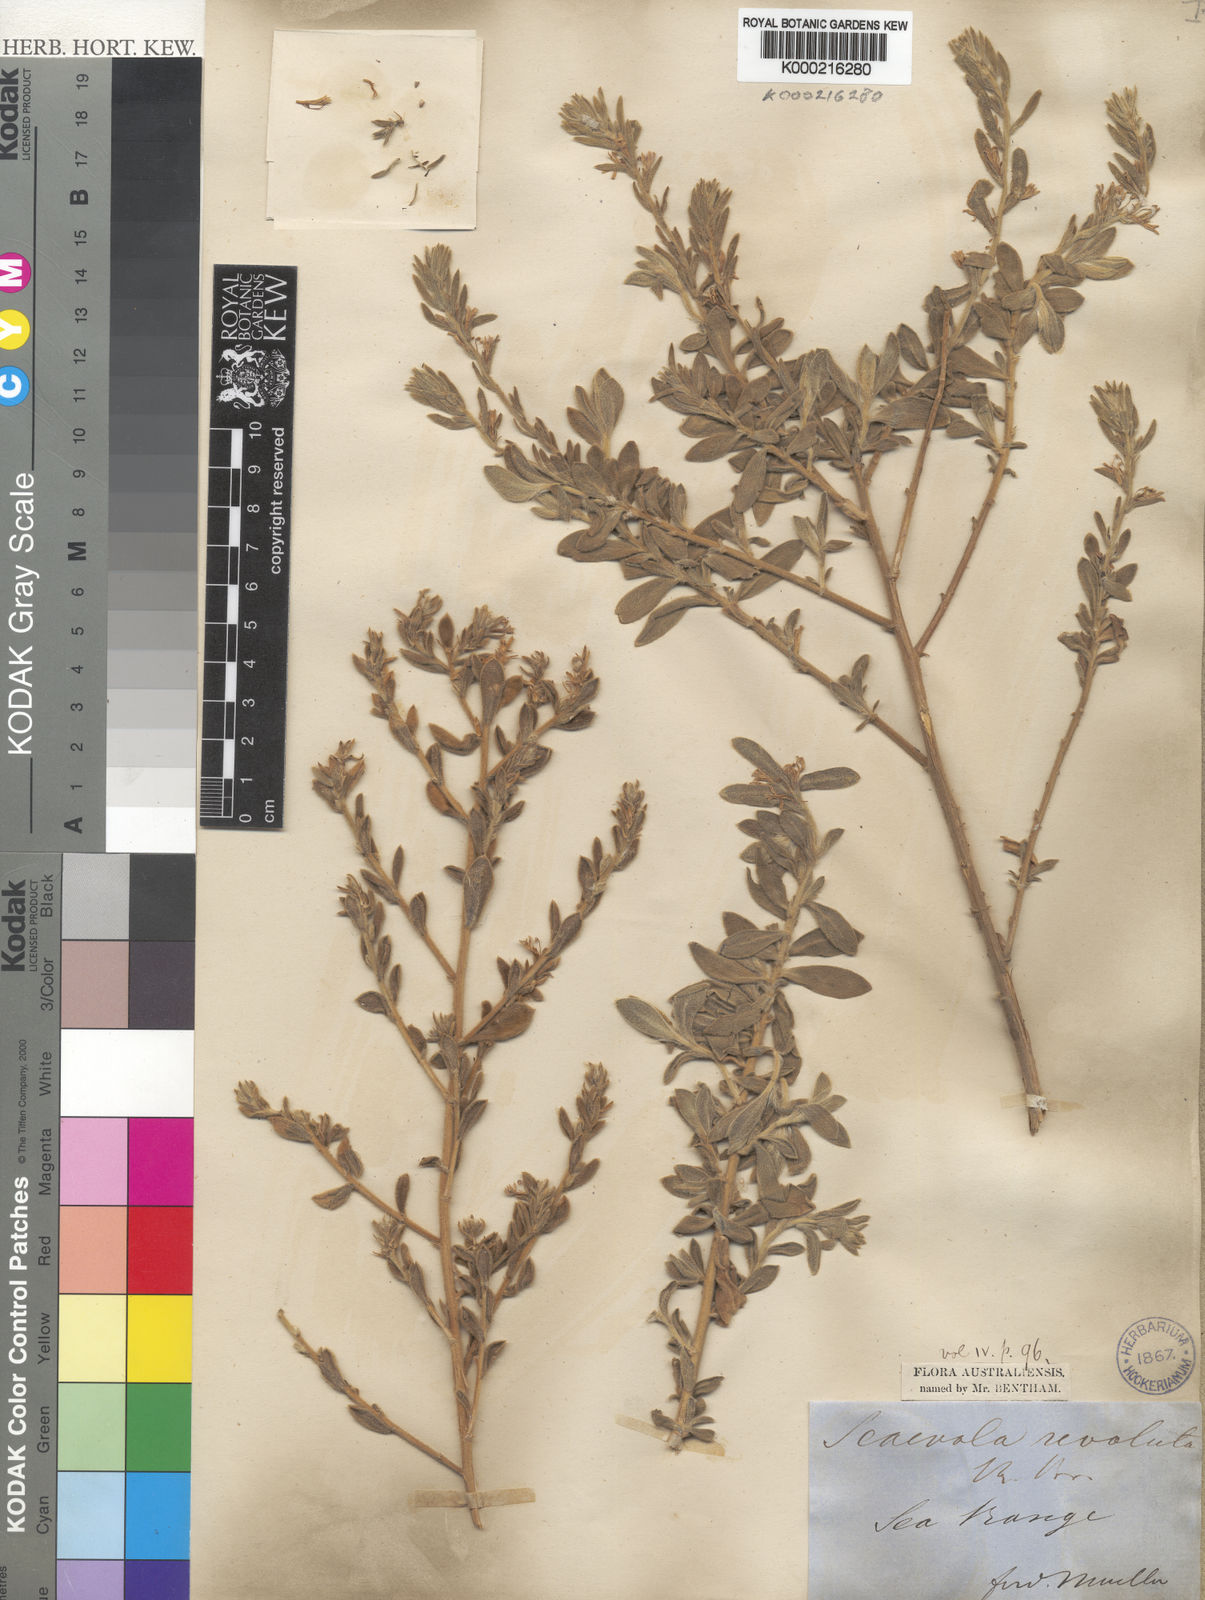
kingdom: Plantae
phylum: Tracheophyta
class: Magnoliopsida
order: Asterales
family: Goodeniaceae
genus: Scaevola
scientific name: Scaevola revoluta
